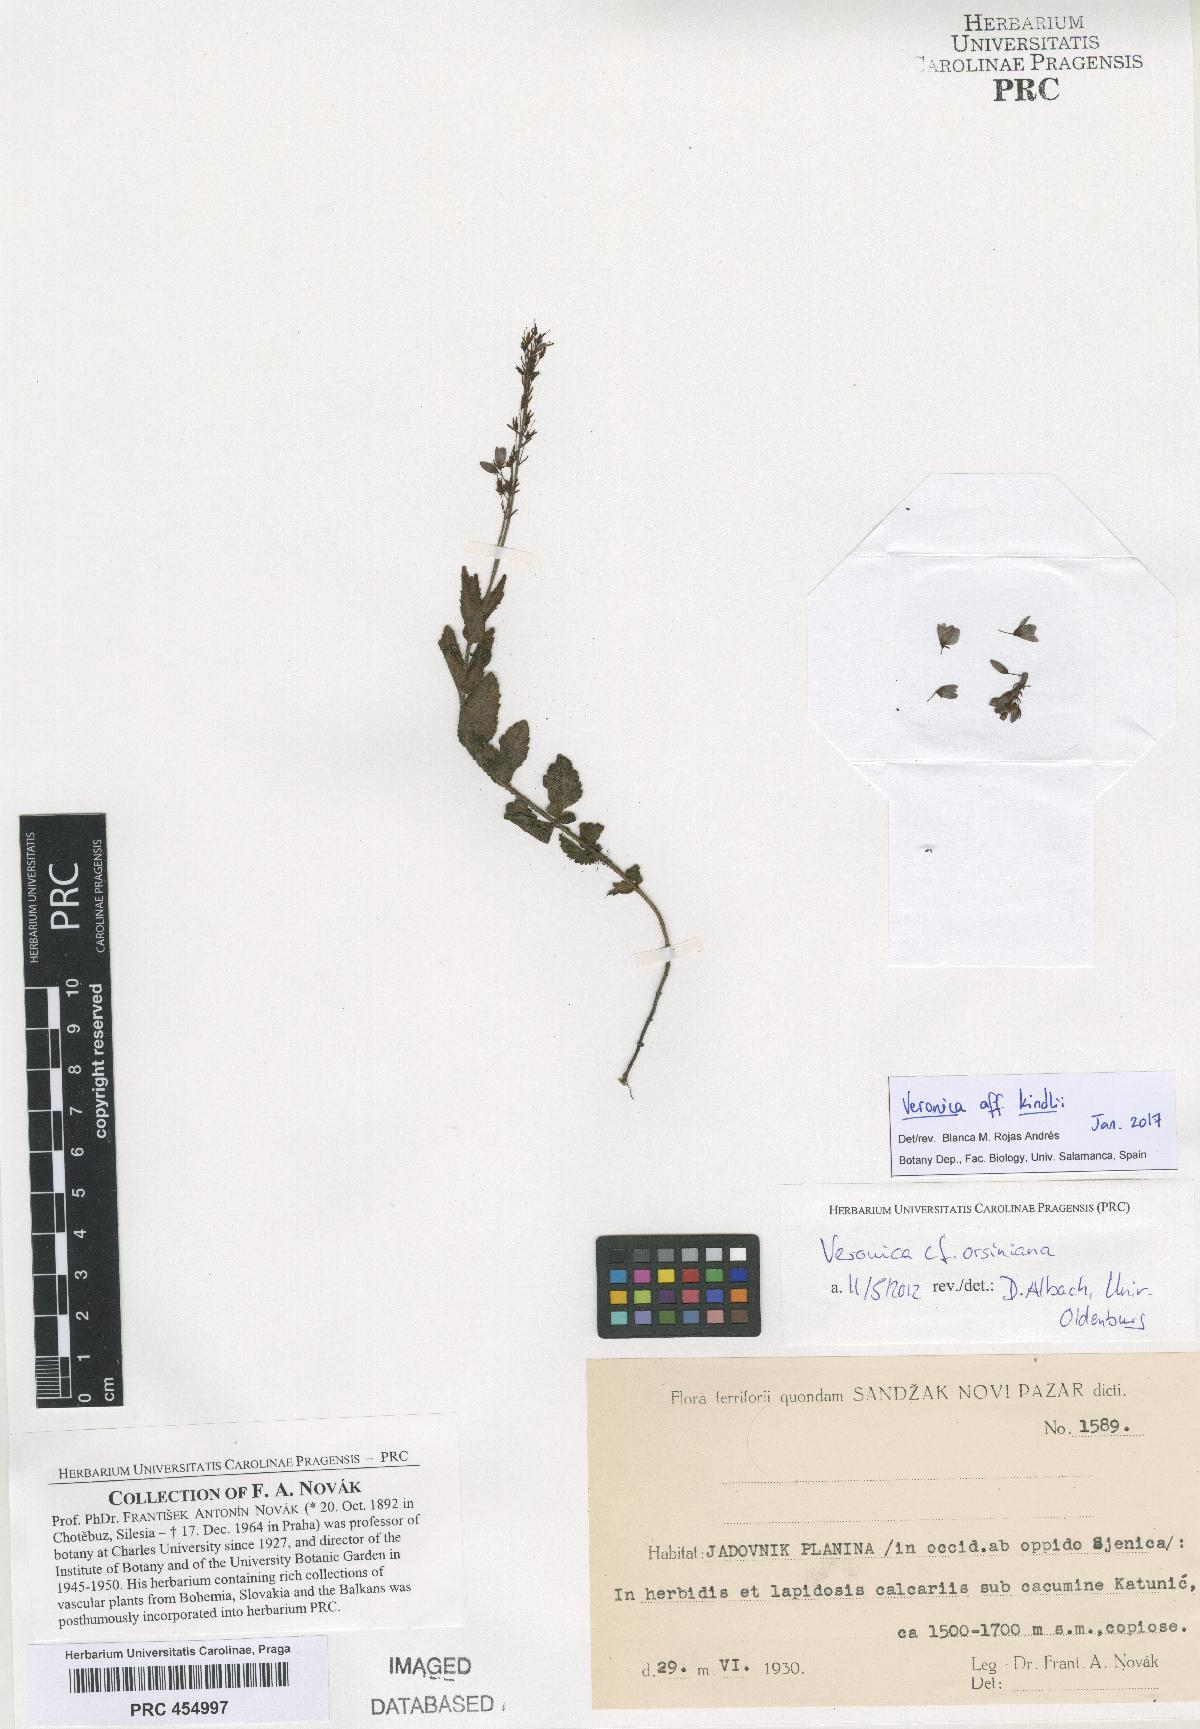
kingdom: Plantae
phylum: Tracheophyta
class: Magnoliopsida
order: Lamiales
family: Plantaginaceae
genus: Veronica
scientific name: Veronica orsiniana
